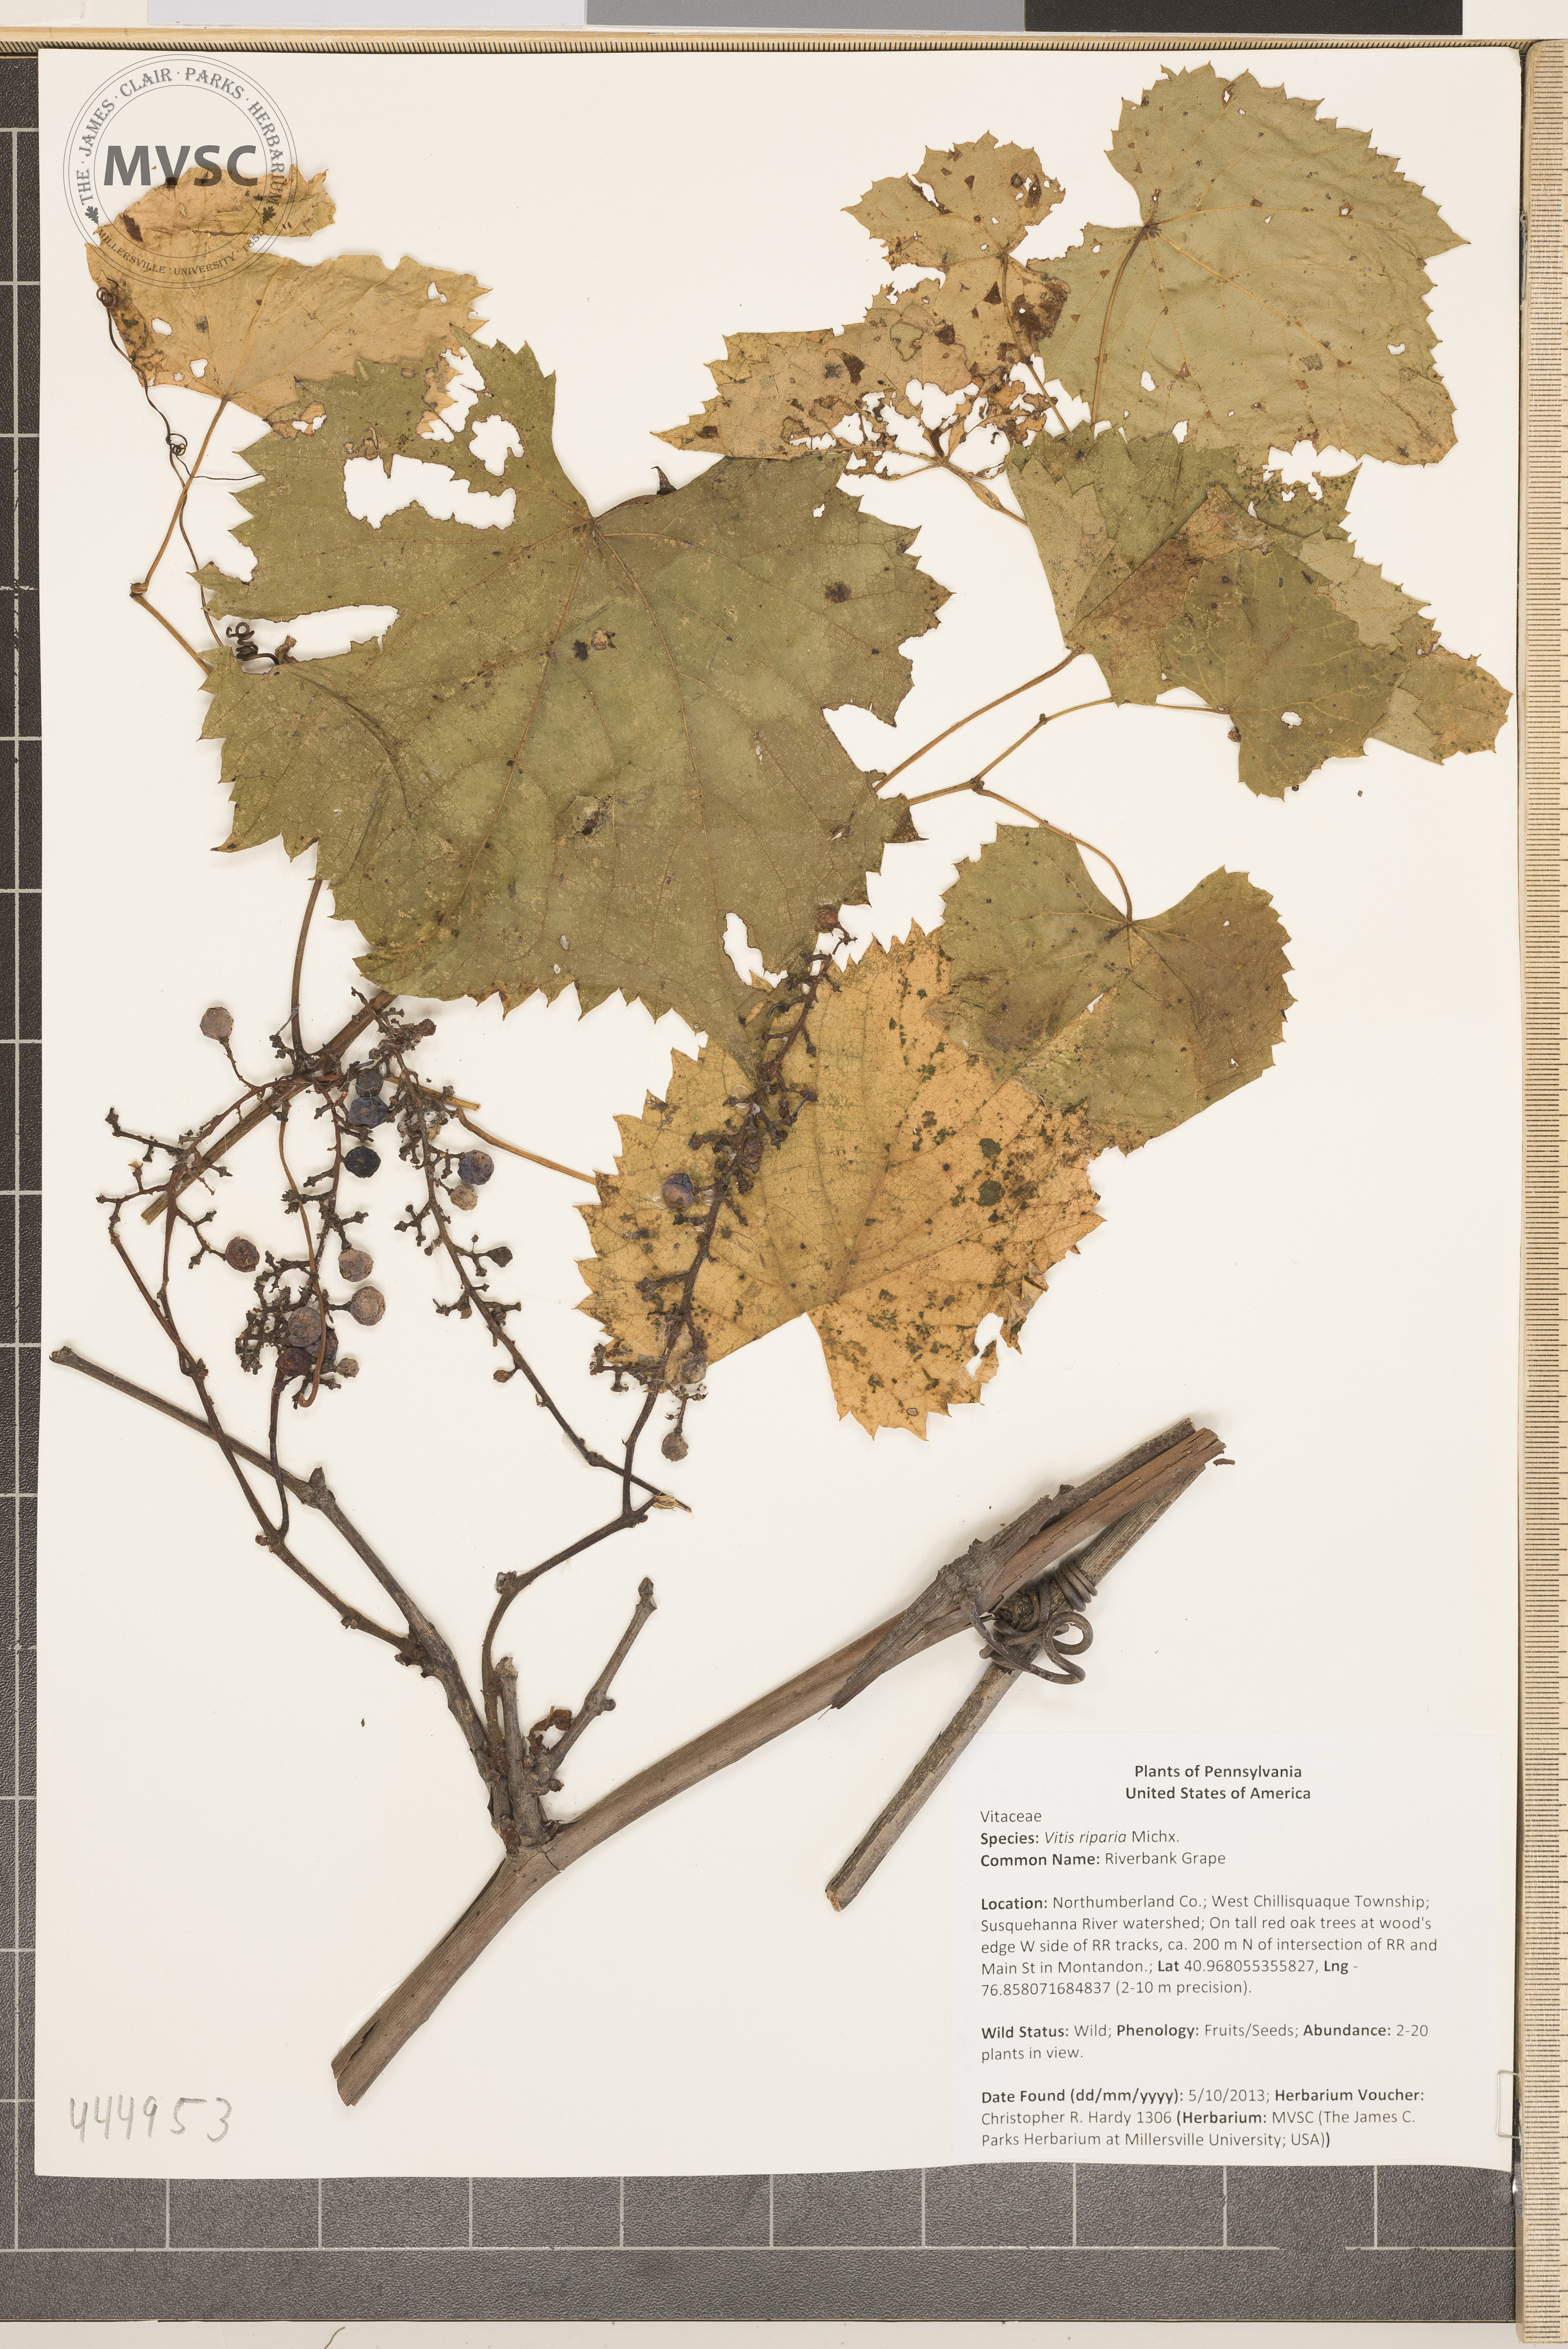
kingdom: Plantae
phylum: Tracheophyta
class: Magnoliopsida
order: Vitales
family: Vitaceae
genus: Vitis
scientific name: Vitis riparia
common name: Riverbank Grape
